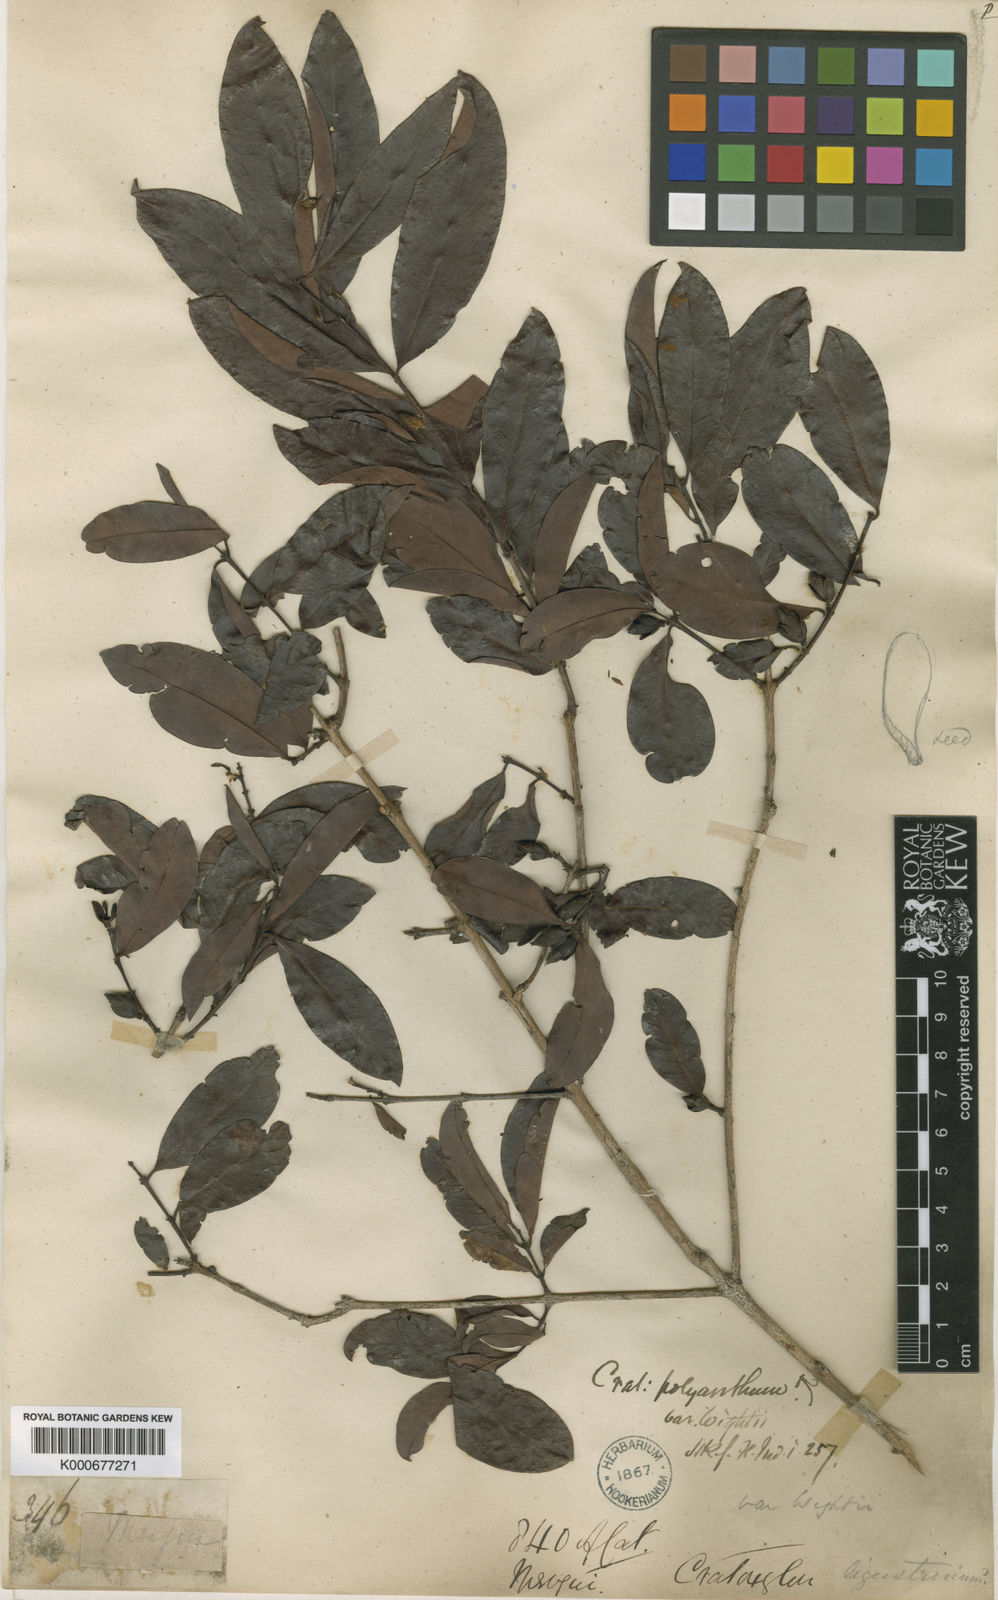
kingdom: Plantae
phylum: Tracheophyta
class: Magnoliopsida
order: Malpighiales
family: Hypericaceae
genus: Cratoxylum
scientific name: Cratoxylum cochinchinense
